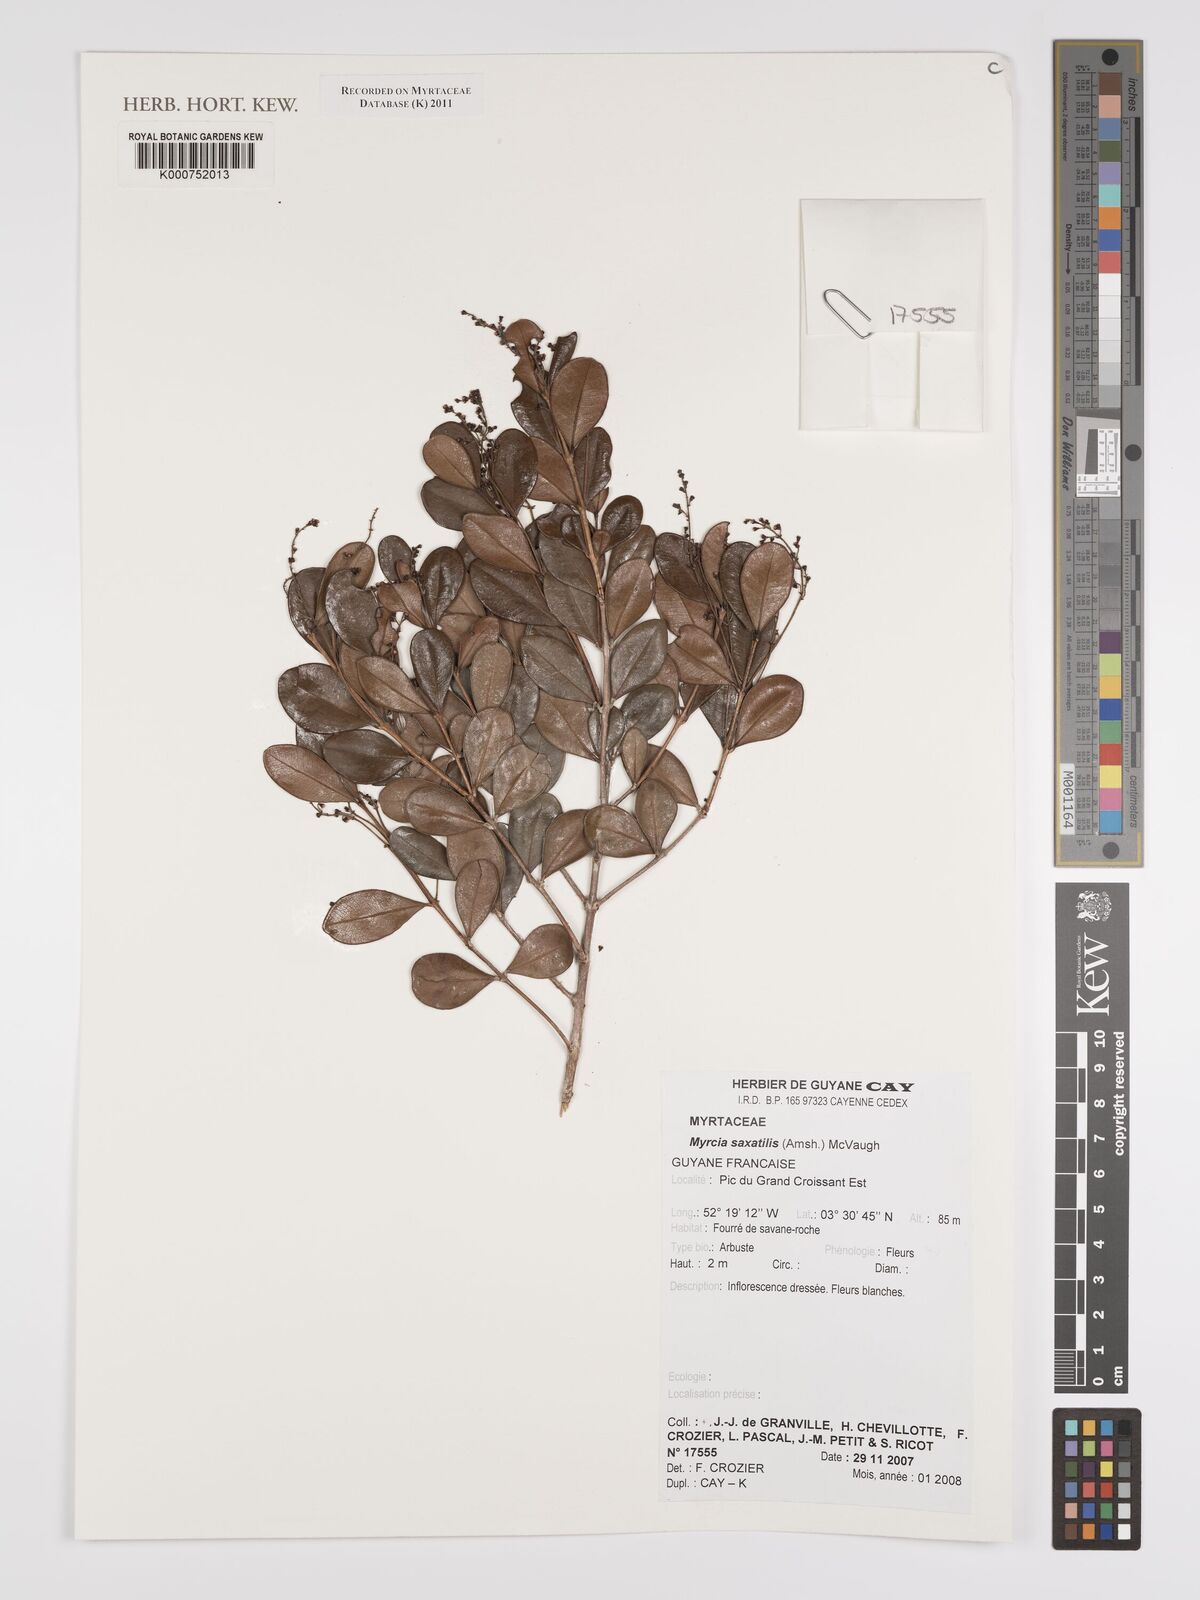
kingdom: Plantae
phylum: Tracheophyta
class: Magnoliopsida
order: Myrtales
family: Myrtaceae
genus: Myrcia
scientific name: Myrcia saxatilis
